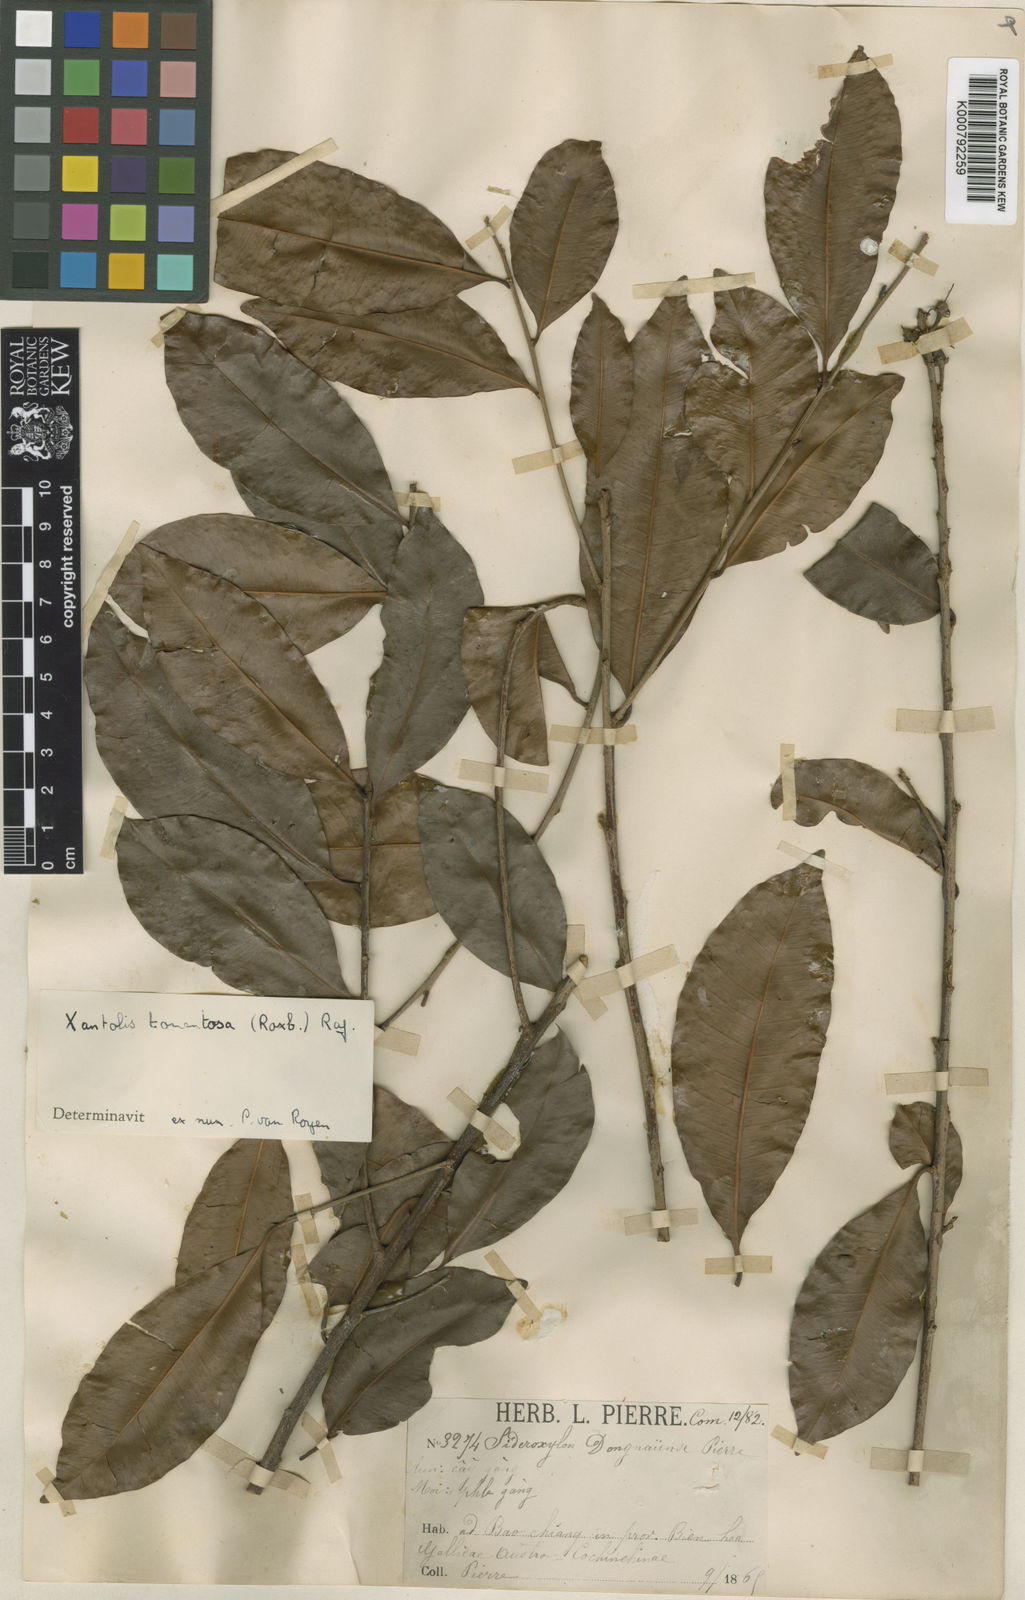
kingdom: Plantae
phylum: Tracheophyta
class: Magnoliopsida
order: Ericales
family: Sapotaceae
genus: Xantolis
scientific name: Xantolis tomentosa
